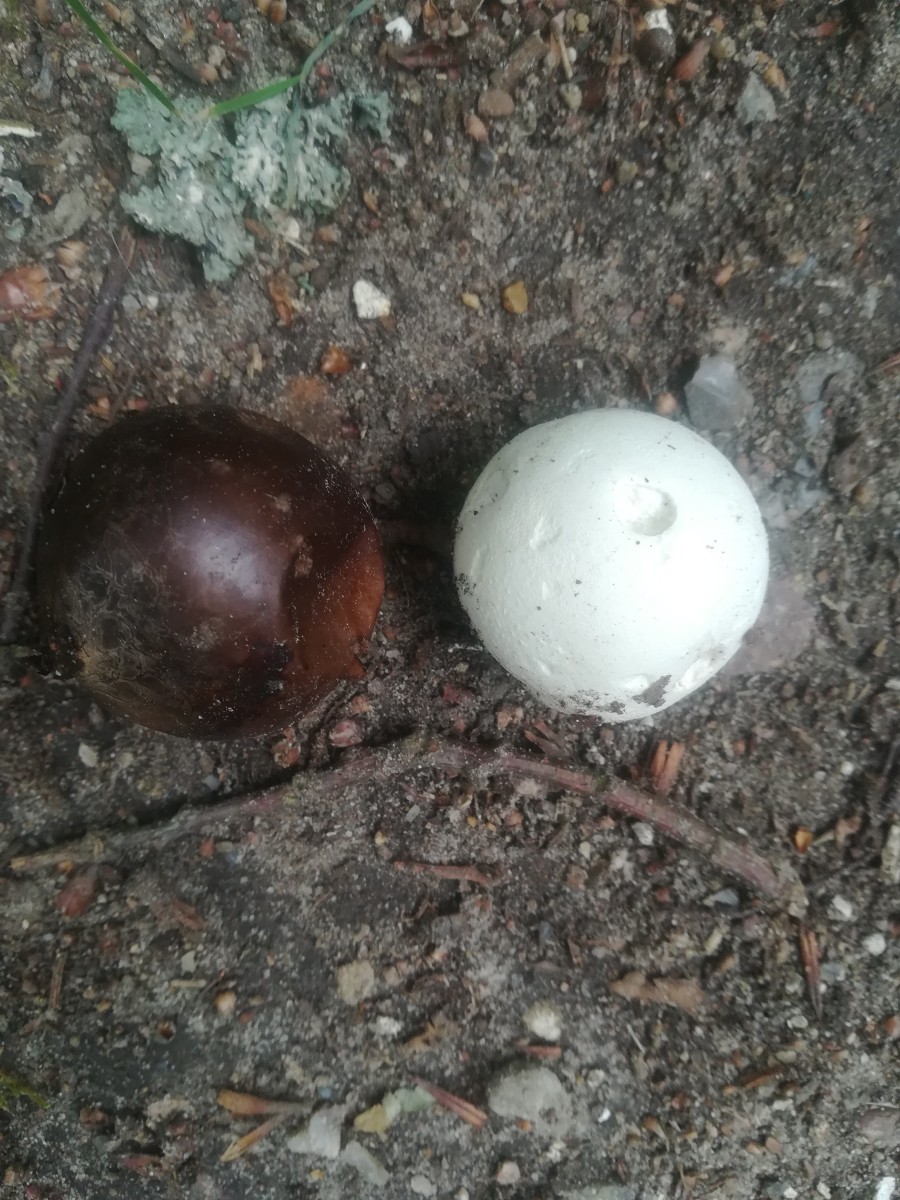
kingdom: Fungi
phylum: Basidiomycota
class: Agaricomycetes
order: Agaricales
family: Lycoperdaceae
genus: Bovista
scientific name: Bovista
